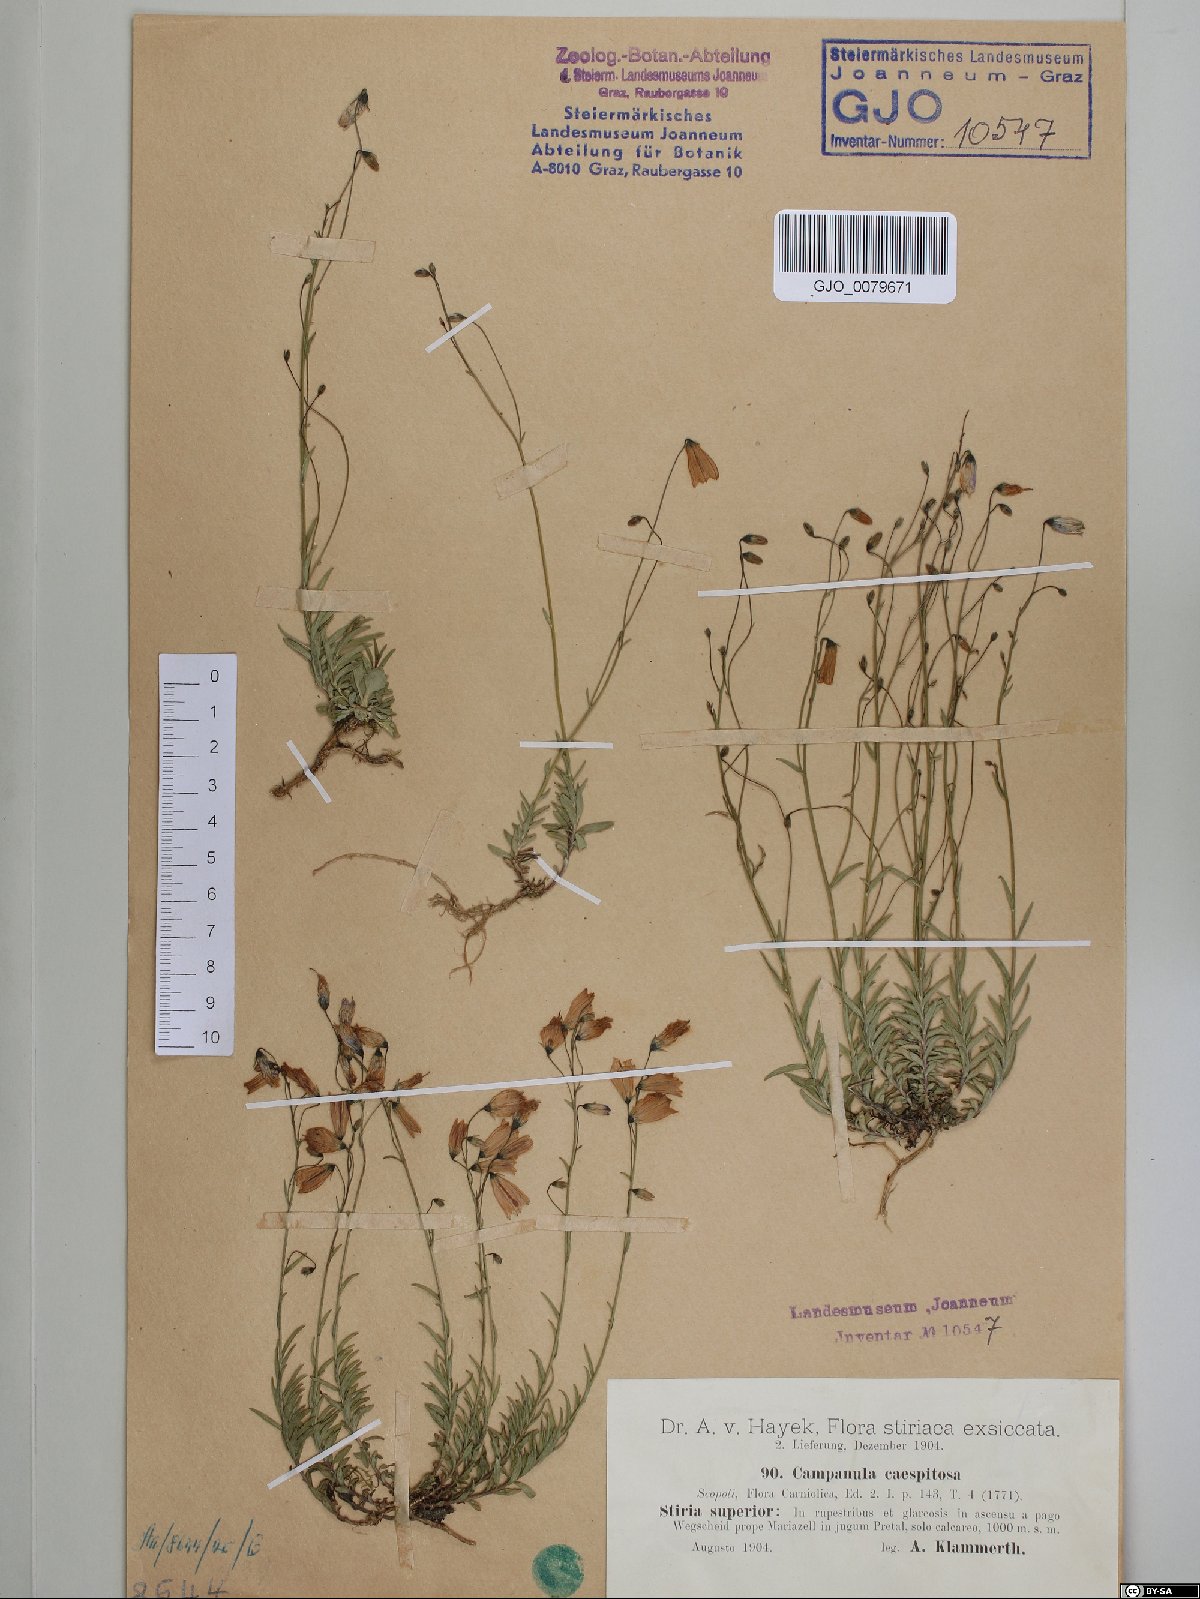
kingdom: Plantae
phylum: Tracheophyta
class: Magnoliopsida
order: Asterales
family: Campanulaceae
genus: Campanula
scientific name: Campanula cespitosa
